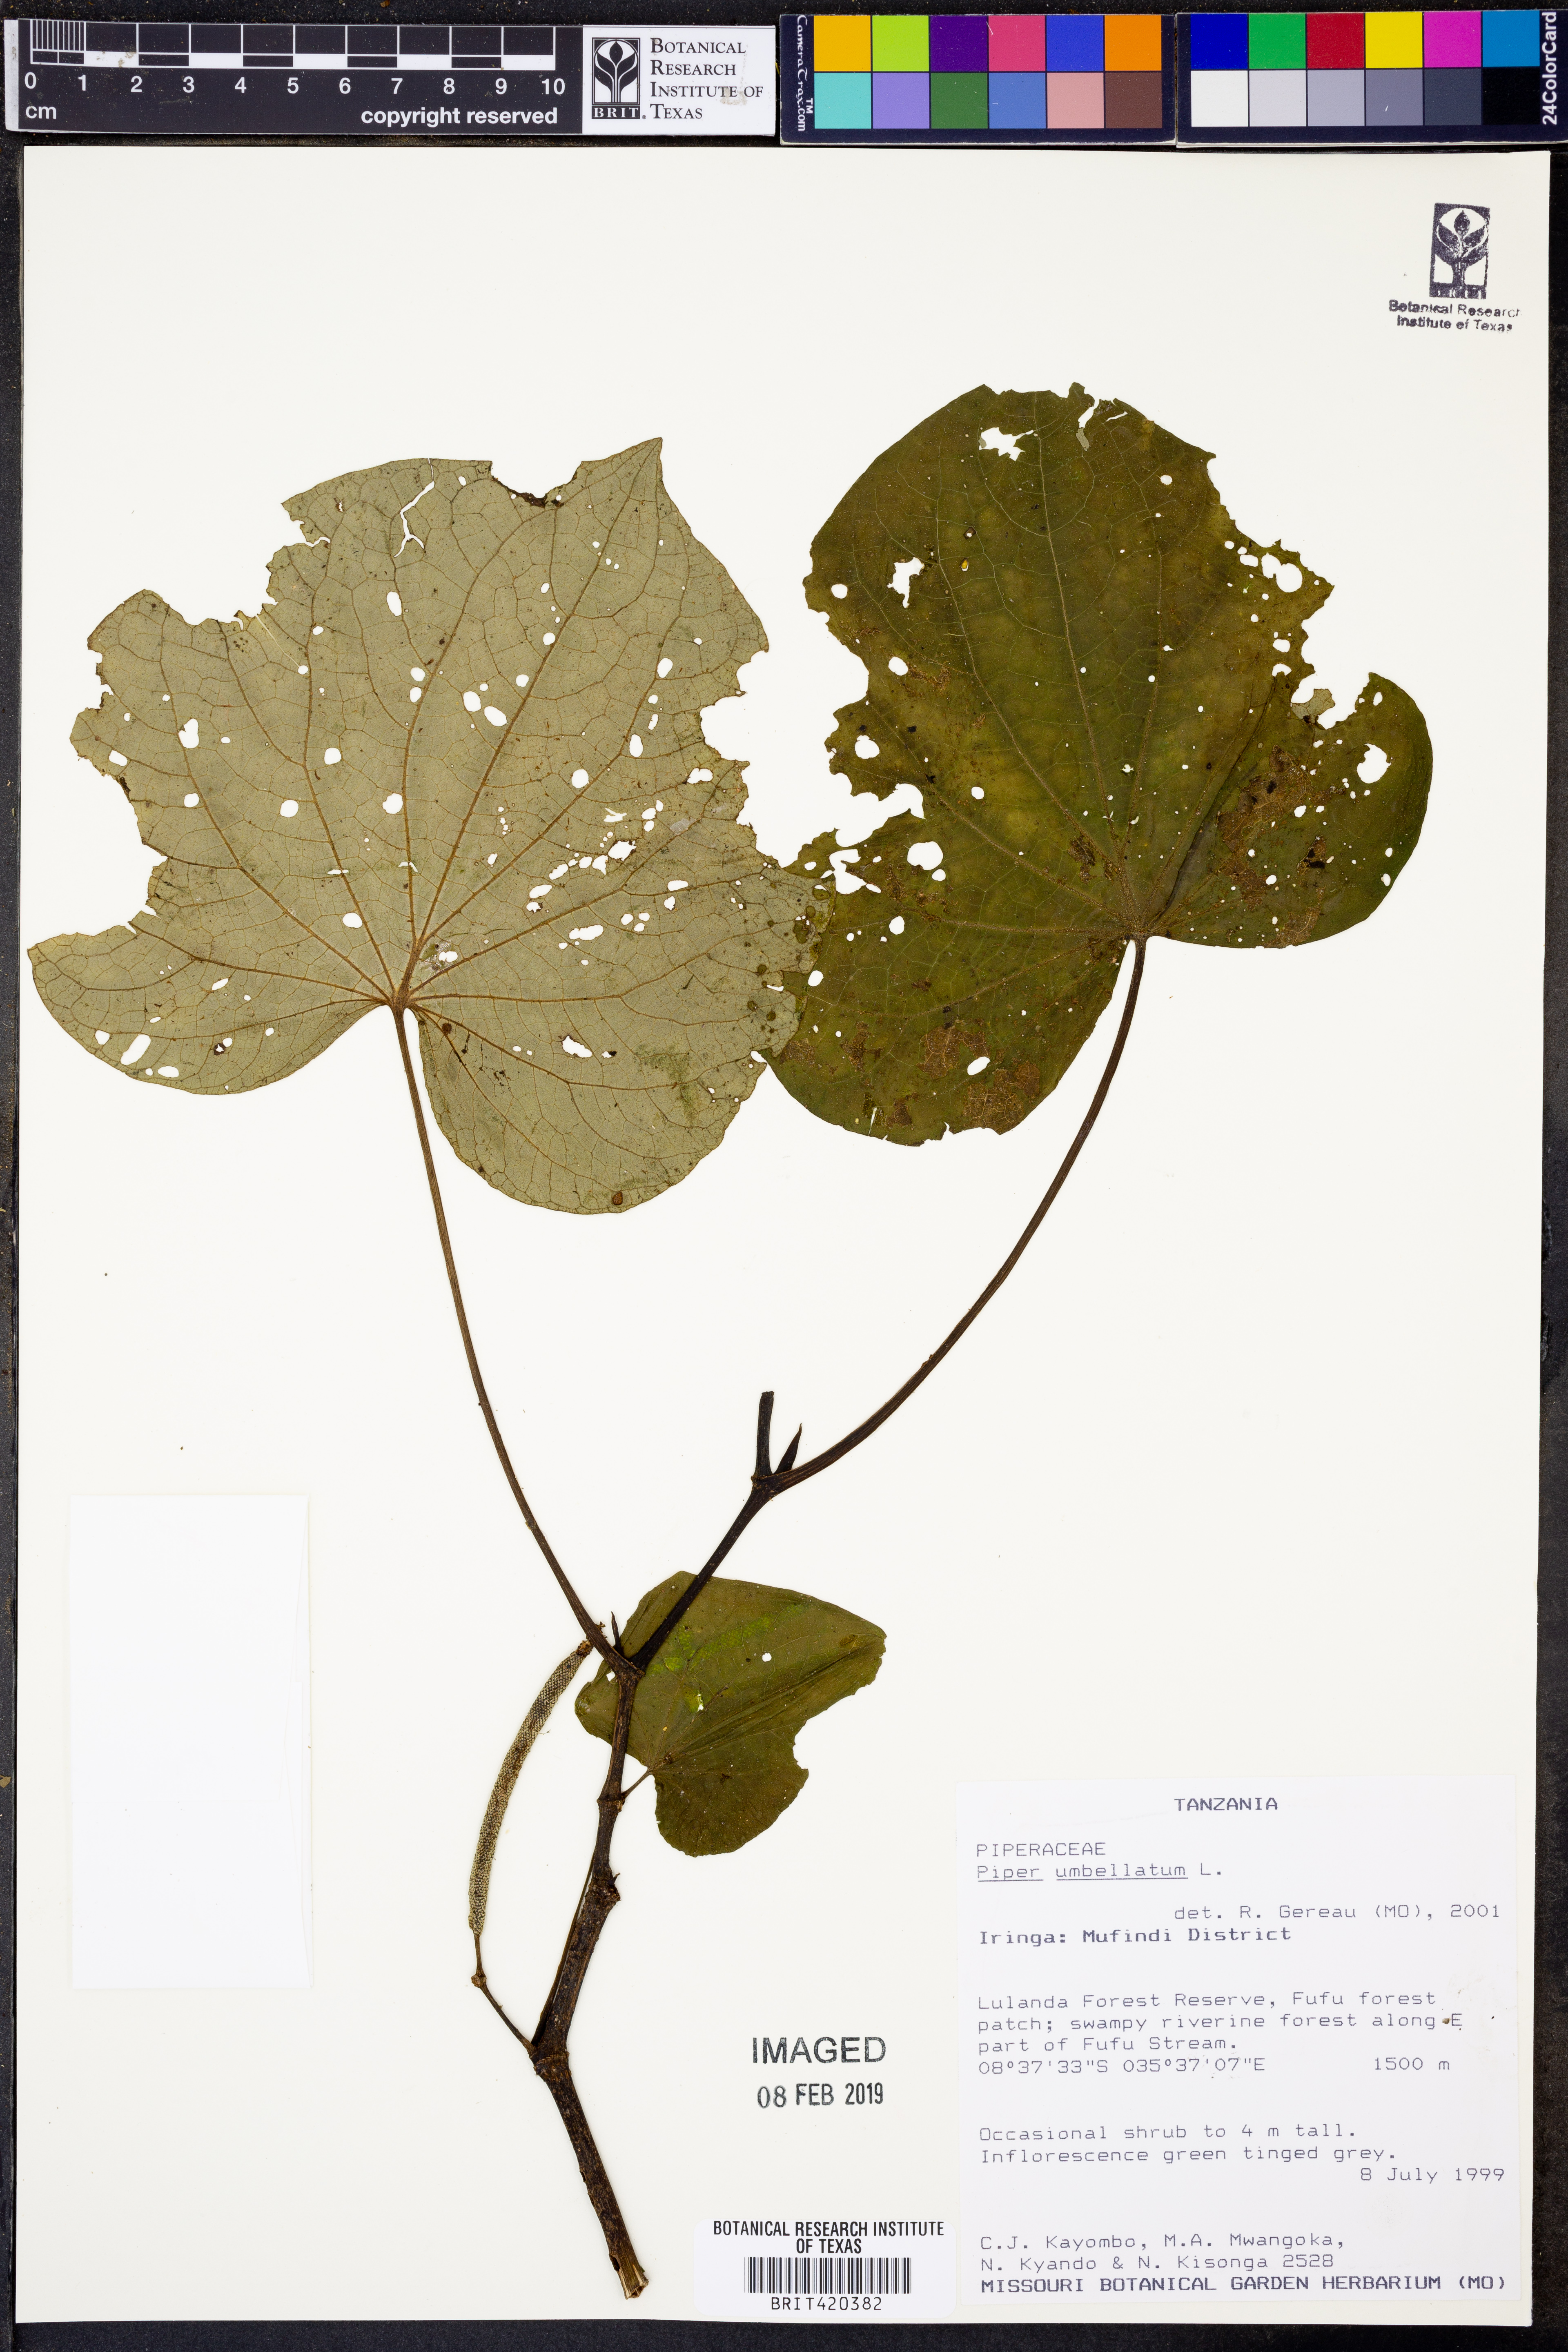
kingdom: Plantae
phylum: Tracheophyta
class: Magnoliopsida
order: Piperales
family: Piperaceae
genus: Piper
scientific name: Piper umbellatum
